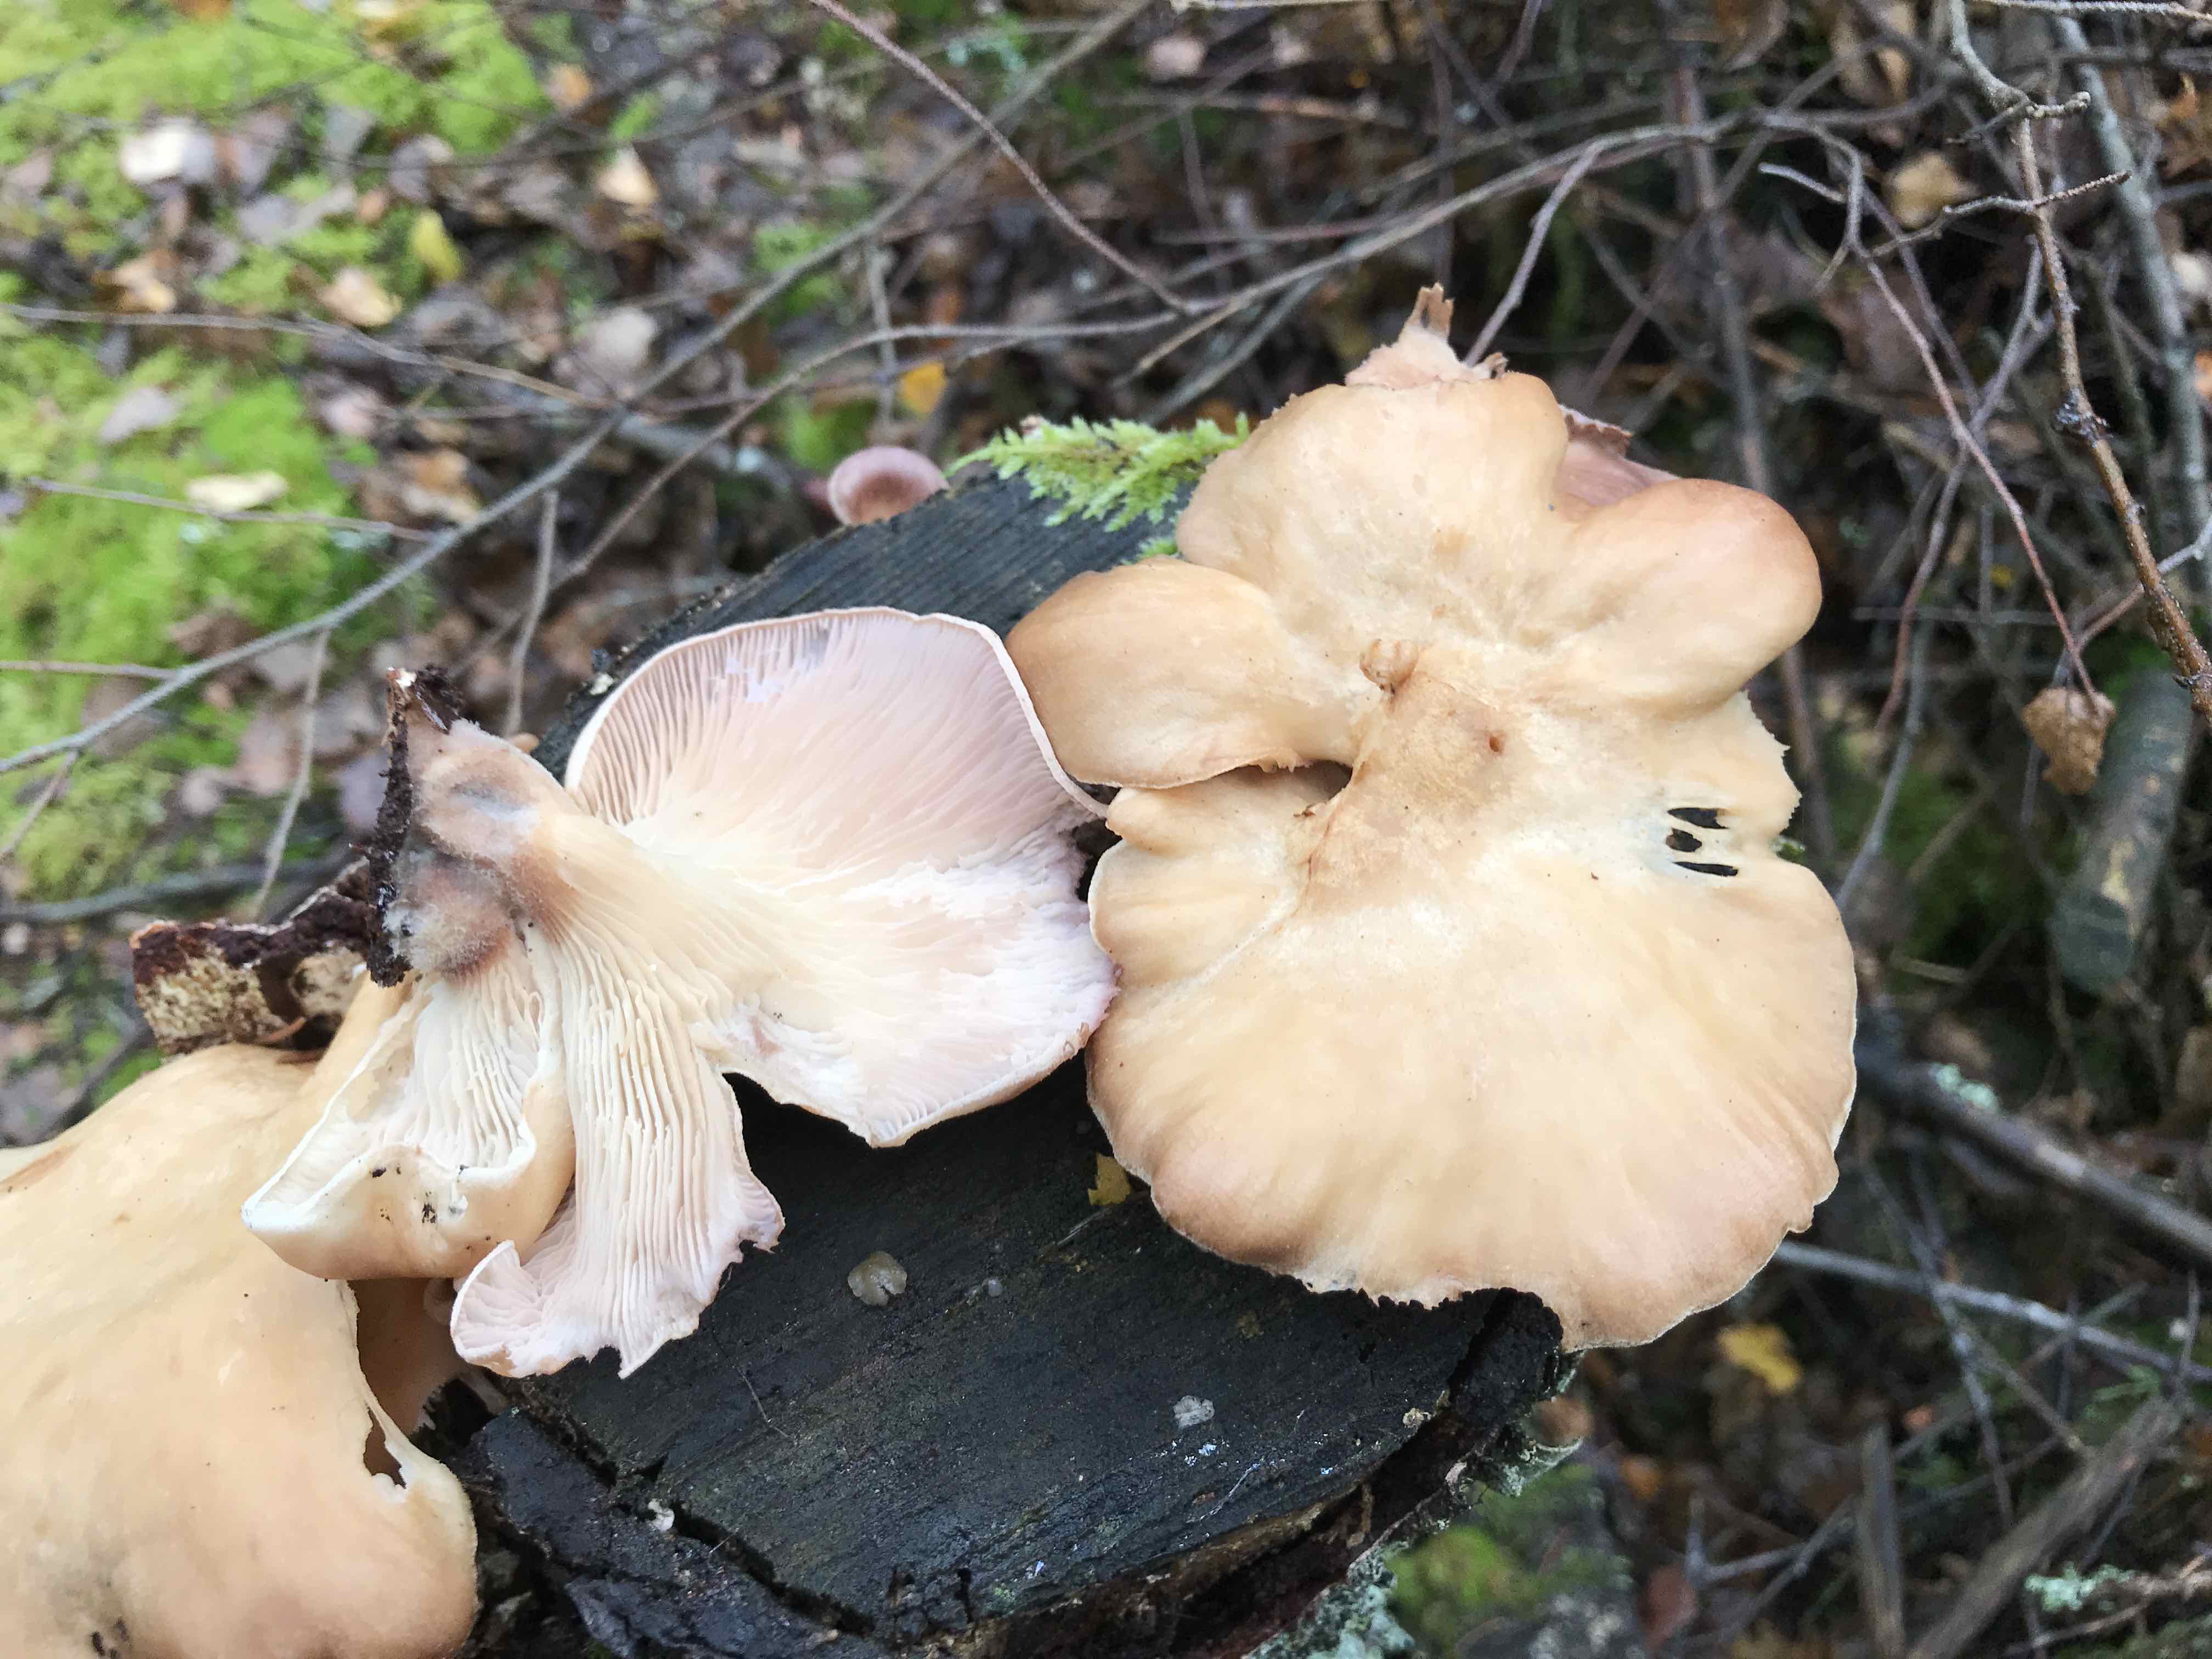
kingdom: Fungi
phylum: Basidiomycota
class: Agaricomycetes
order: Polyporales
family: Panaceae
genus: Panus
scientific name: Panus conchatus
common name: filtstokket læderhat
